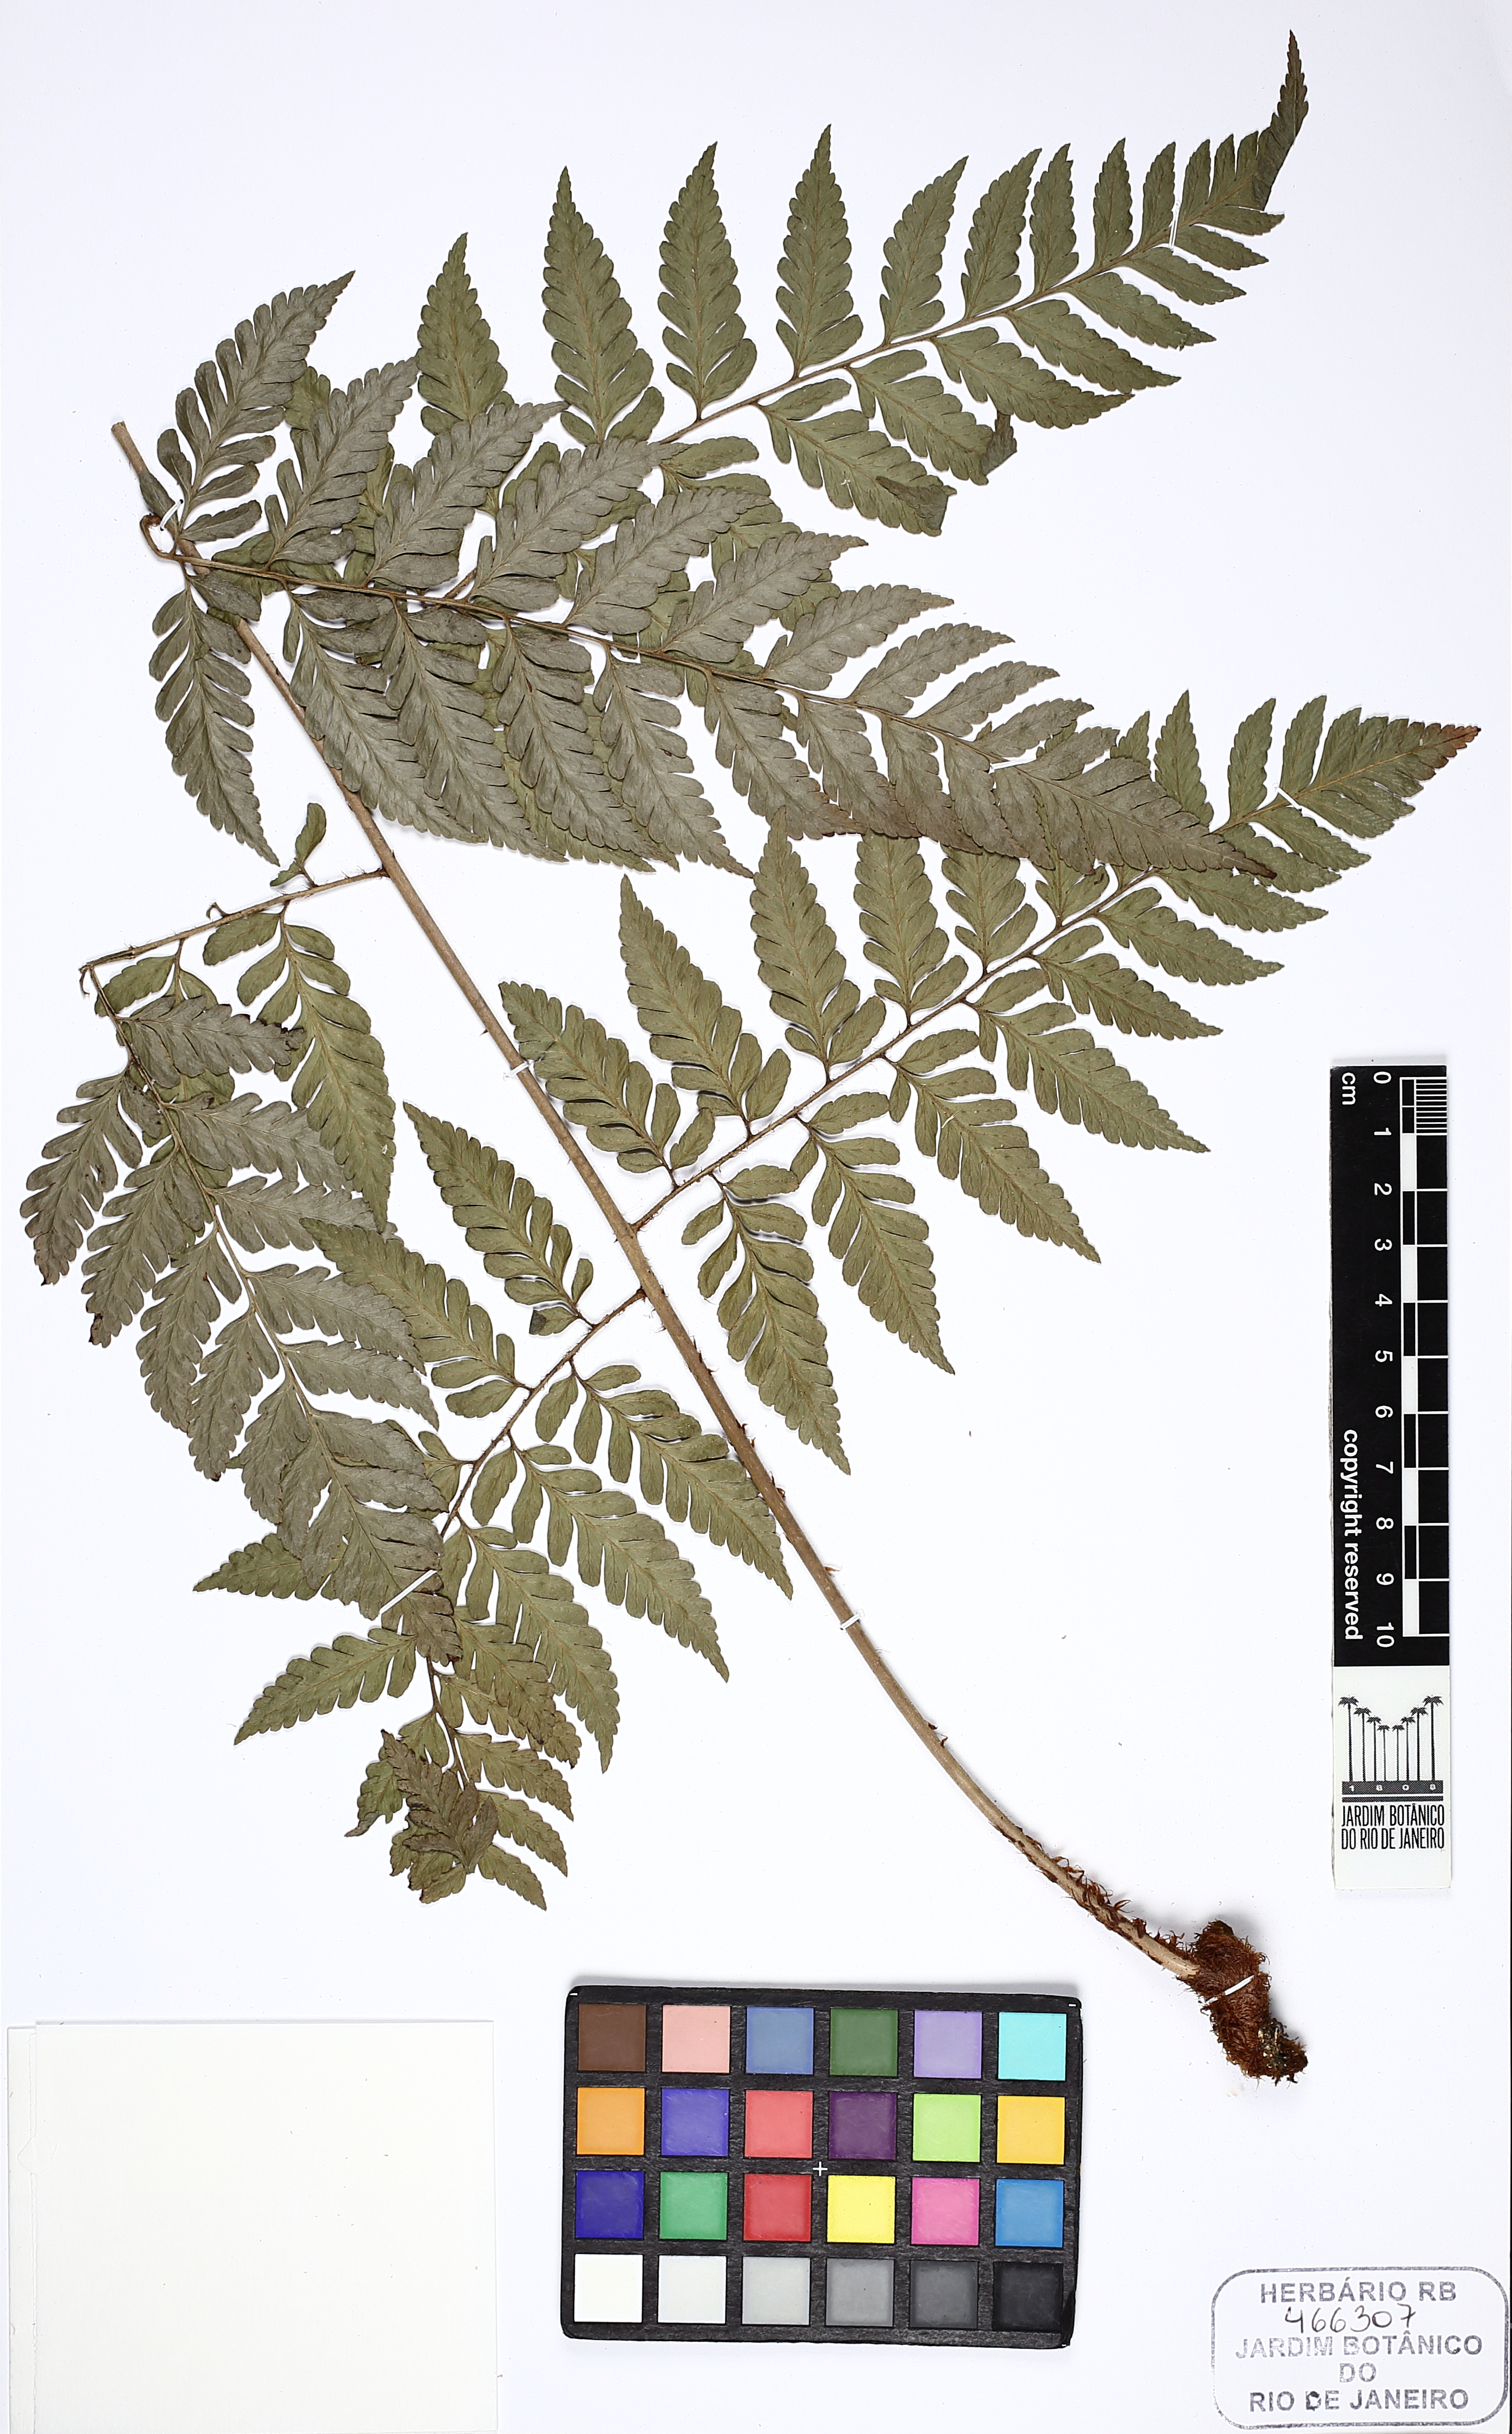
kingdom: Plantae
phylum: Tracheophyta
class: Polypodiopsida
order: Polypodiales
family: Dryopteridaceae
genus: Polybotrya
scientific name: Polybotrya speciosa
